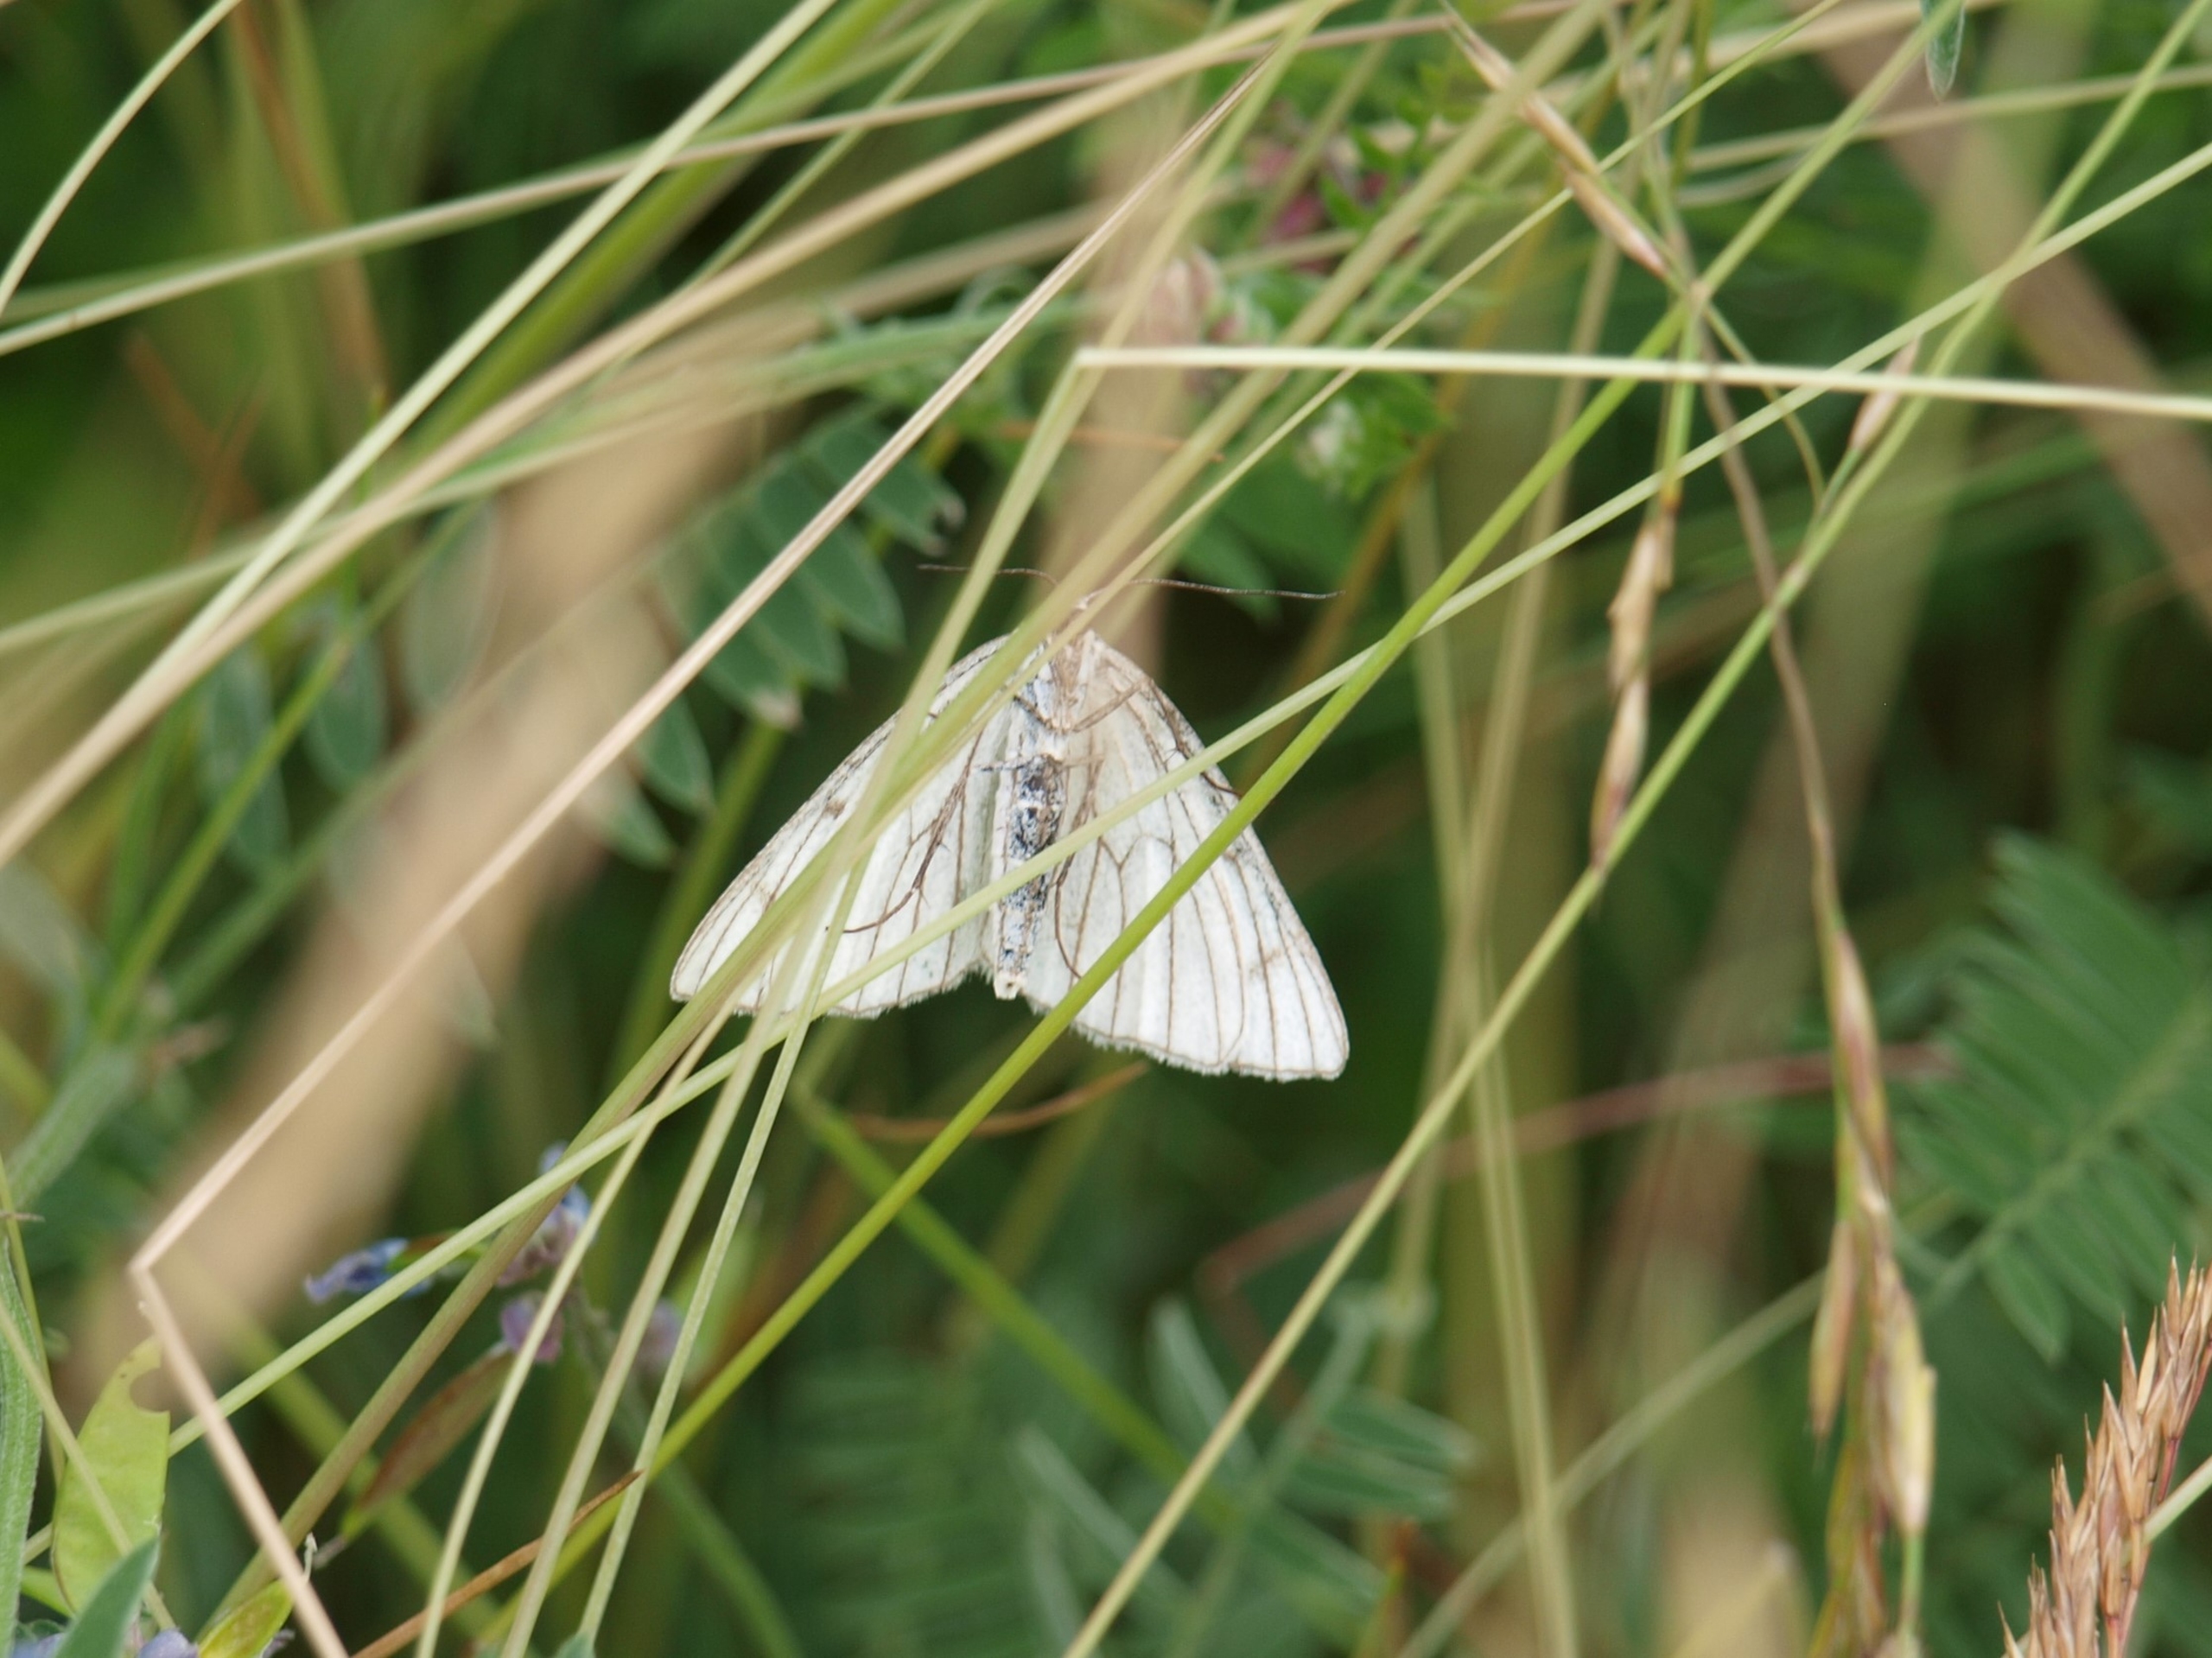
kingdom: Animalia
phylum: Arthropoda
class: Insecta
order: Lepidoptera
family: Geometridae
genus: Siona
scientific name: Siona lineata
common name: Hvidvingemåler
